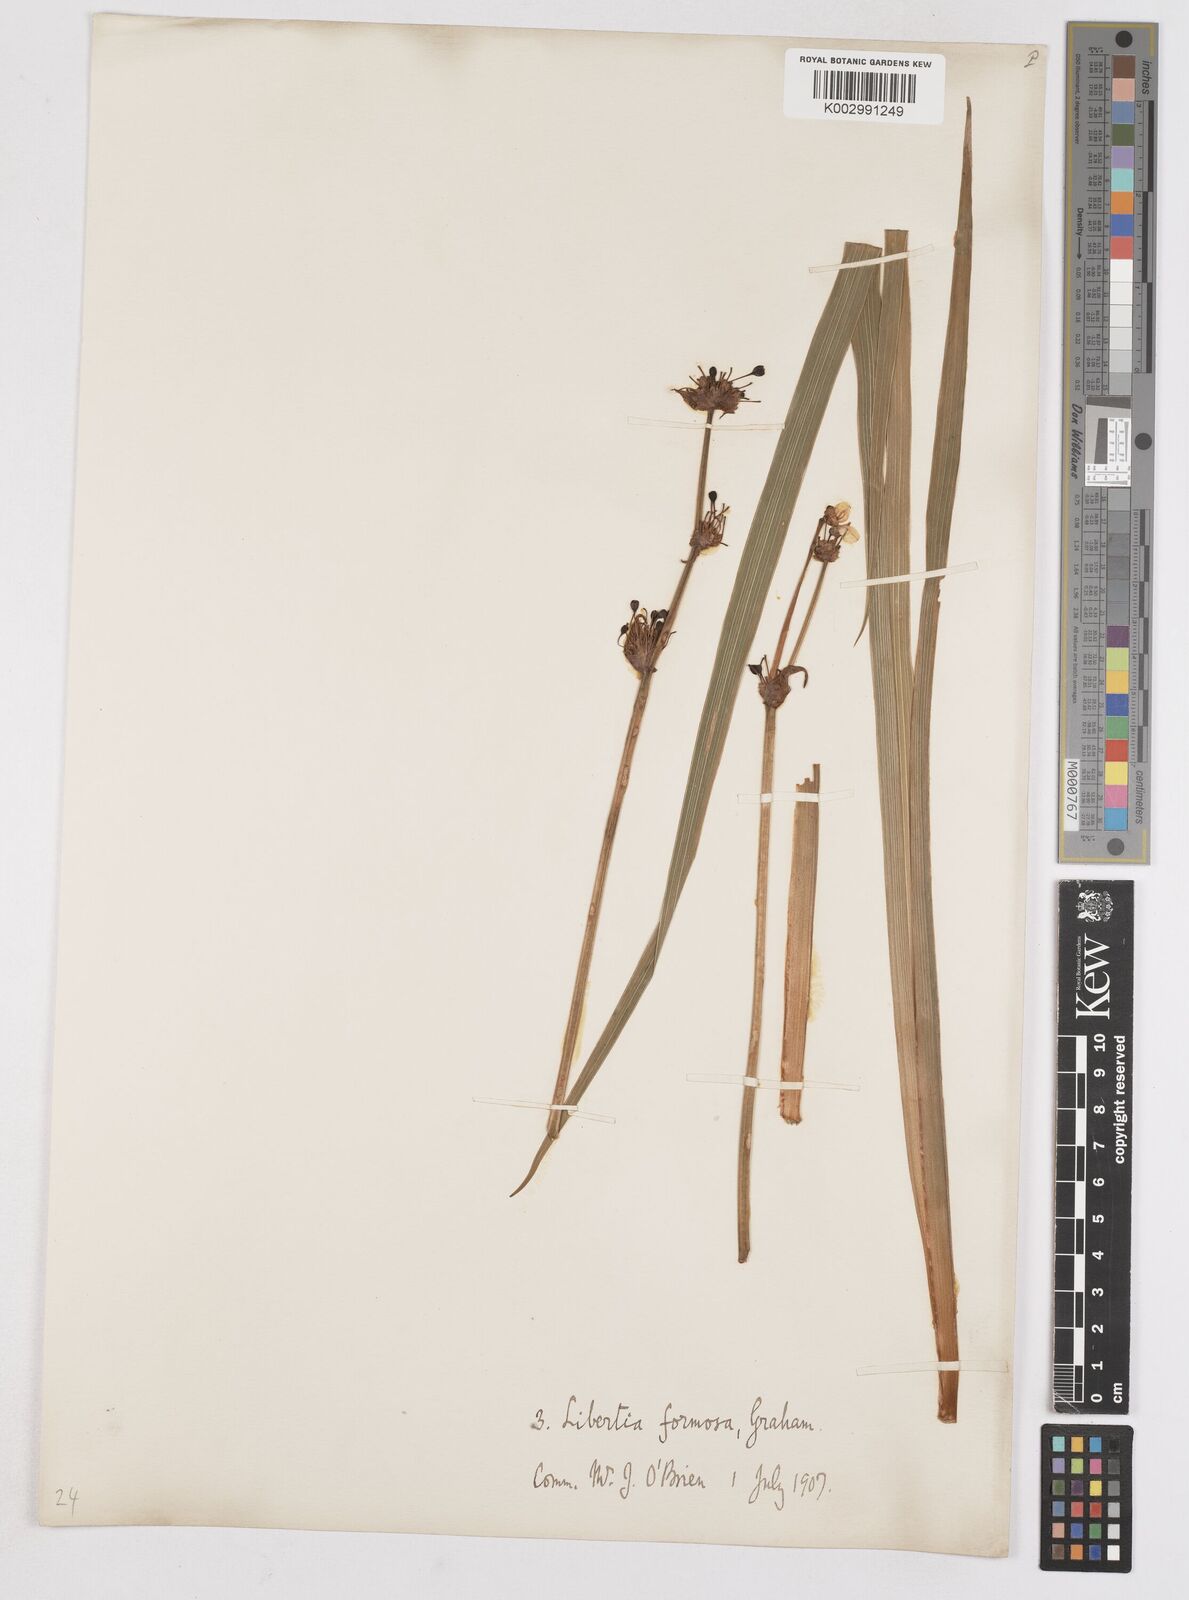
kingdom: Plantae
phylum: Tracheophyta
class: Liliopsida
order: Asparagales
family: Iridaceae
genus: Libertia
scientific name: Libertia chilensis
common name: Satin flower
